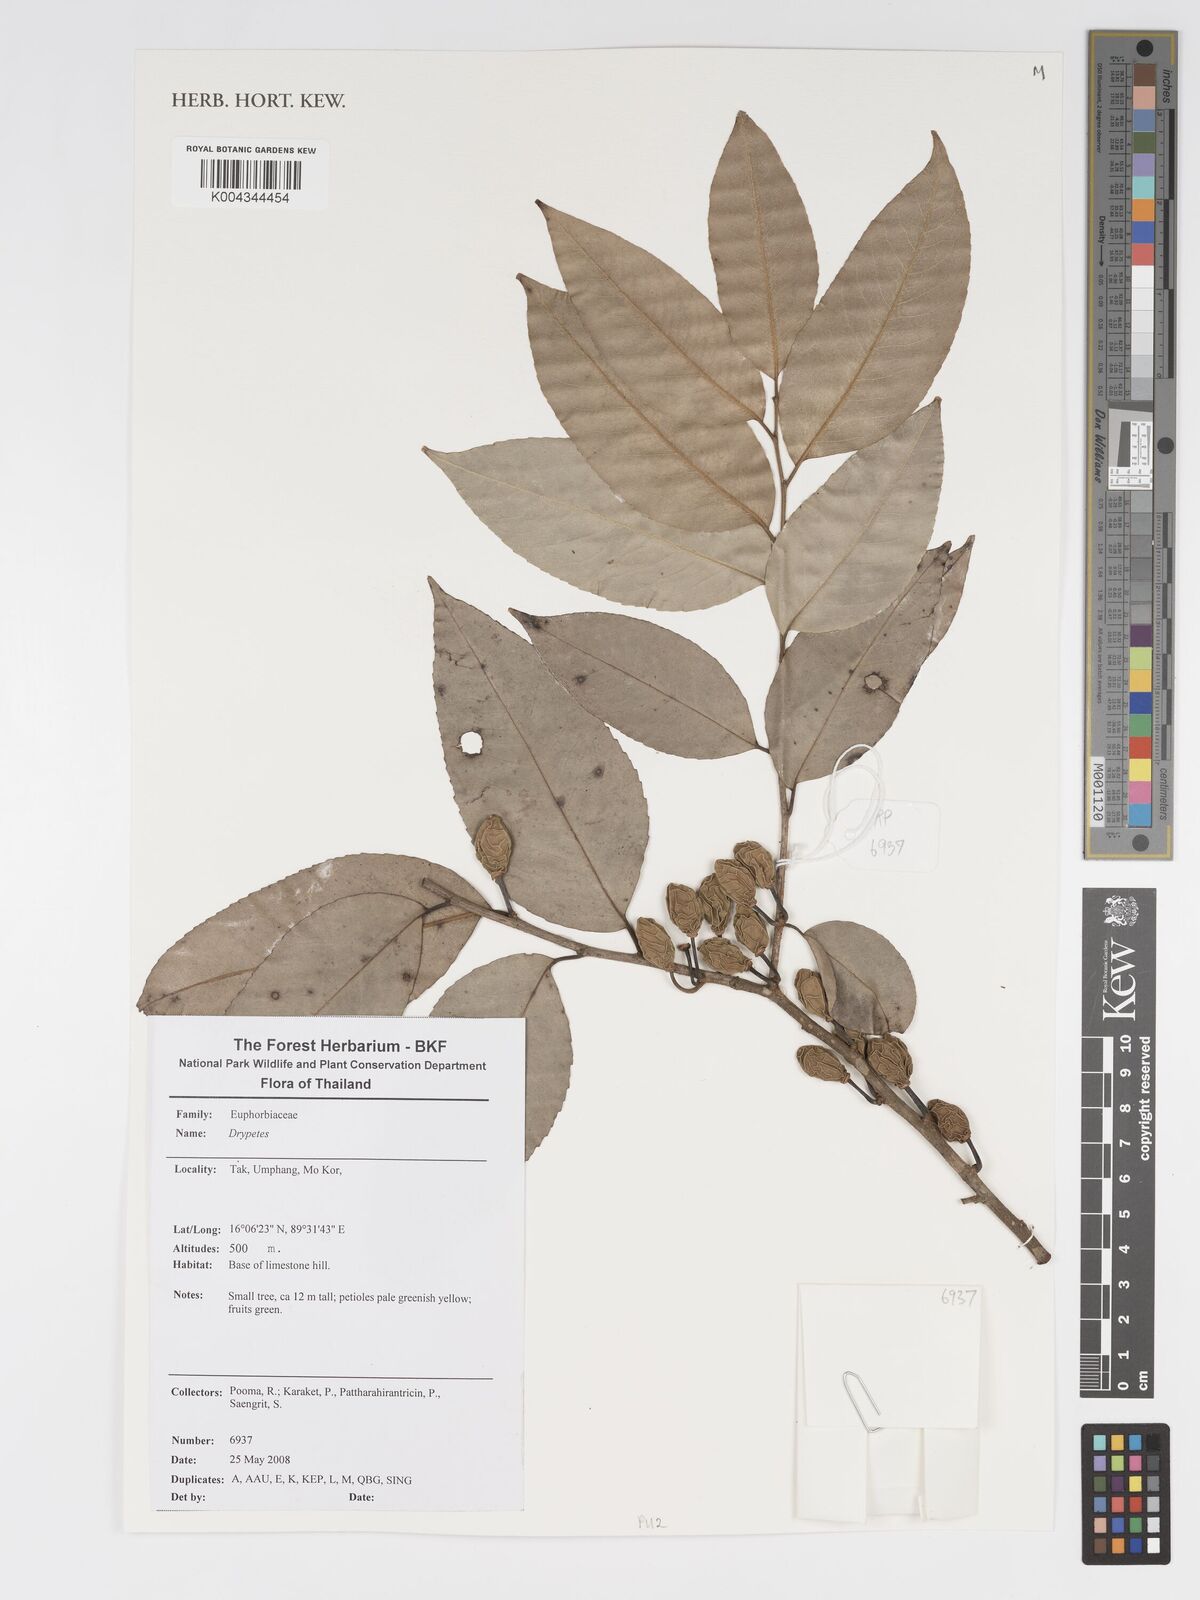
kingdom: Plantae
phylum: Tracheophyta
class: Magnoliopsida
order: Malpighiales
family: Putranjivaceae
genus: Drypetes
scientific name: Drypetes
